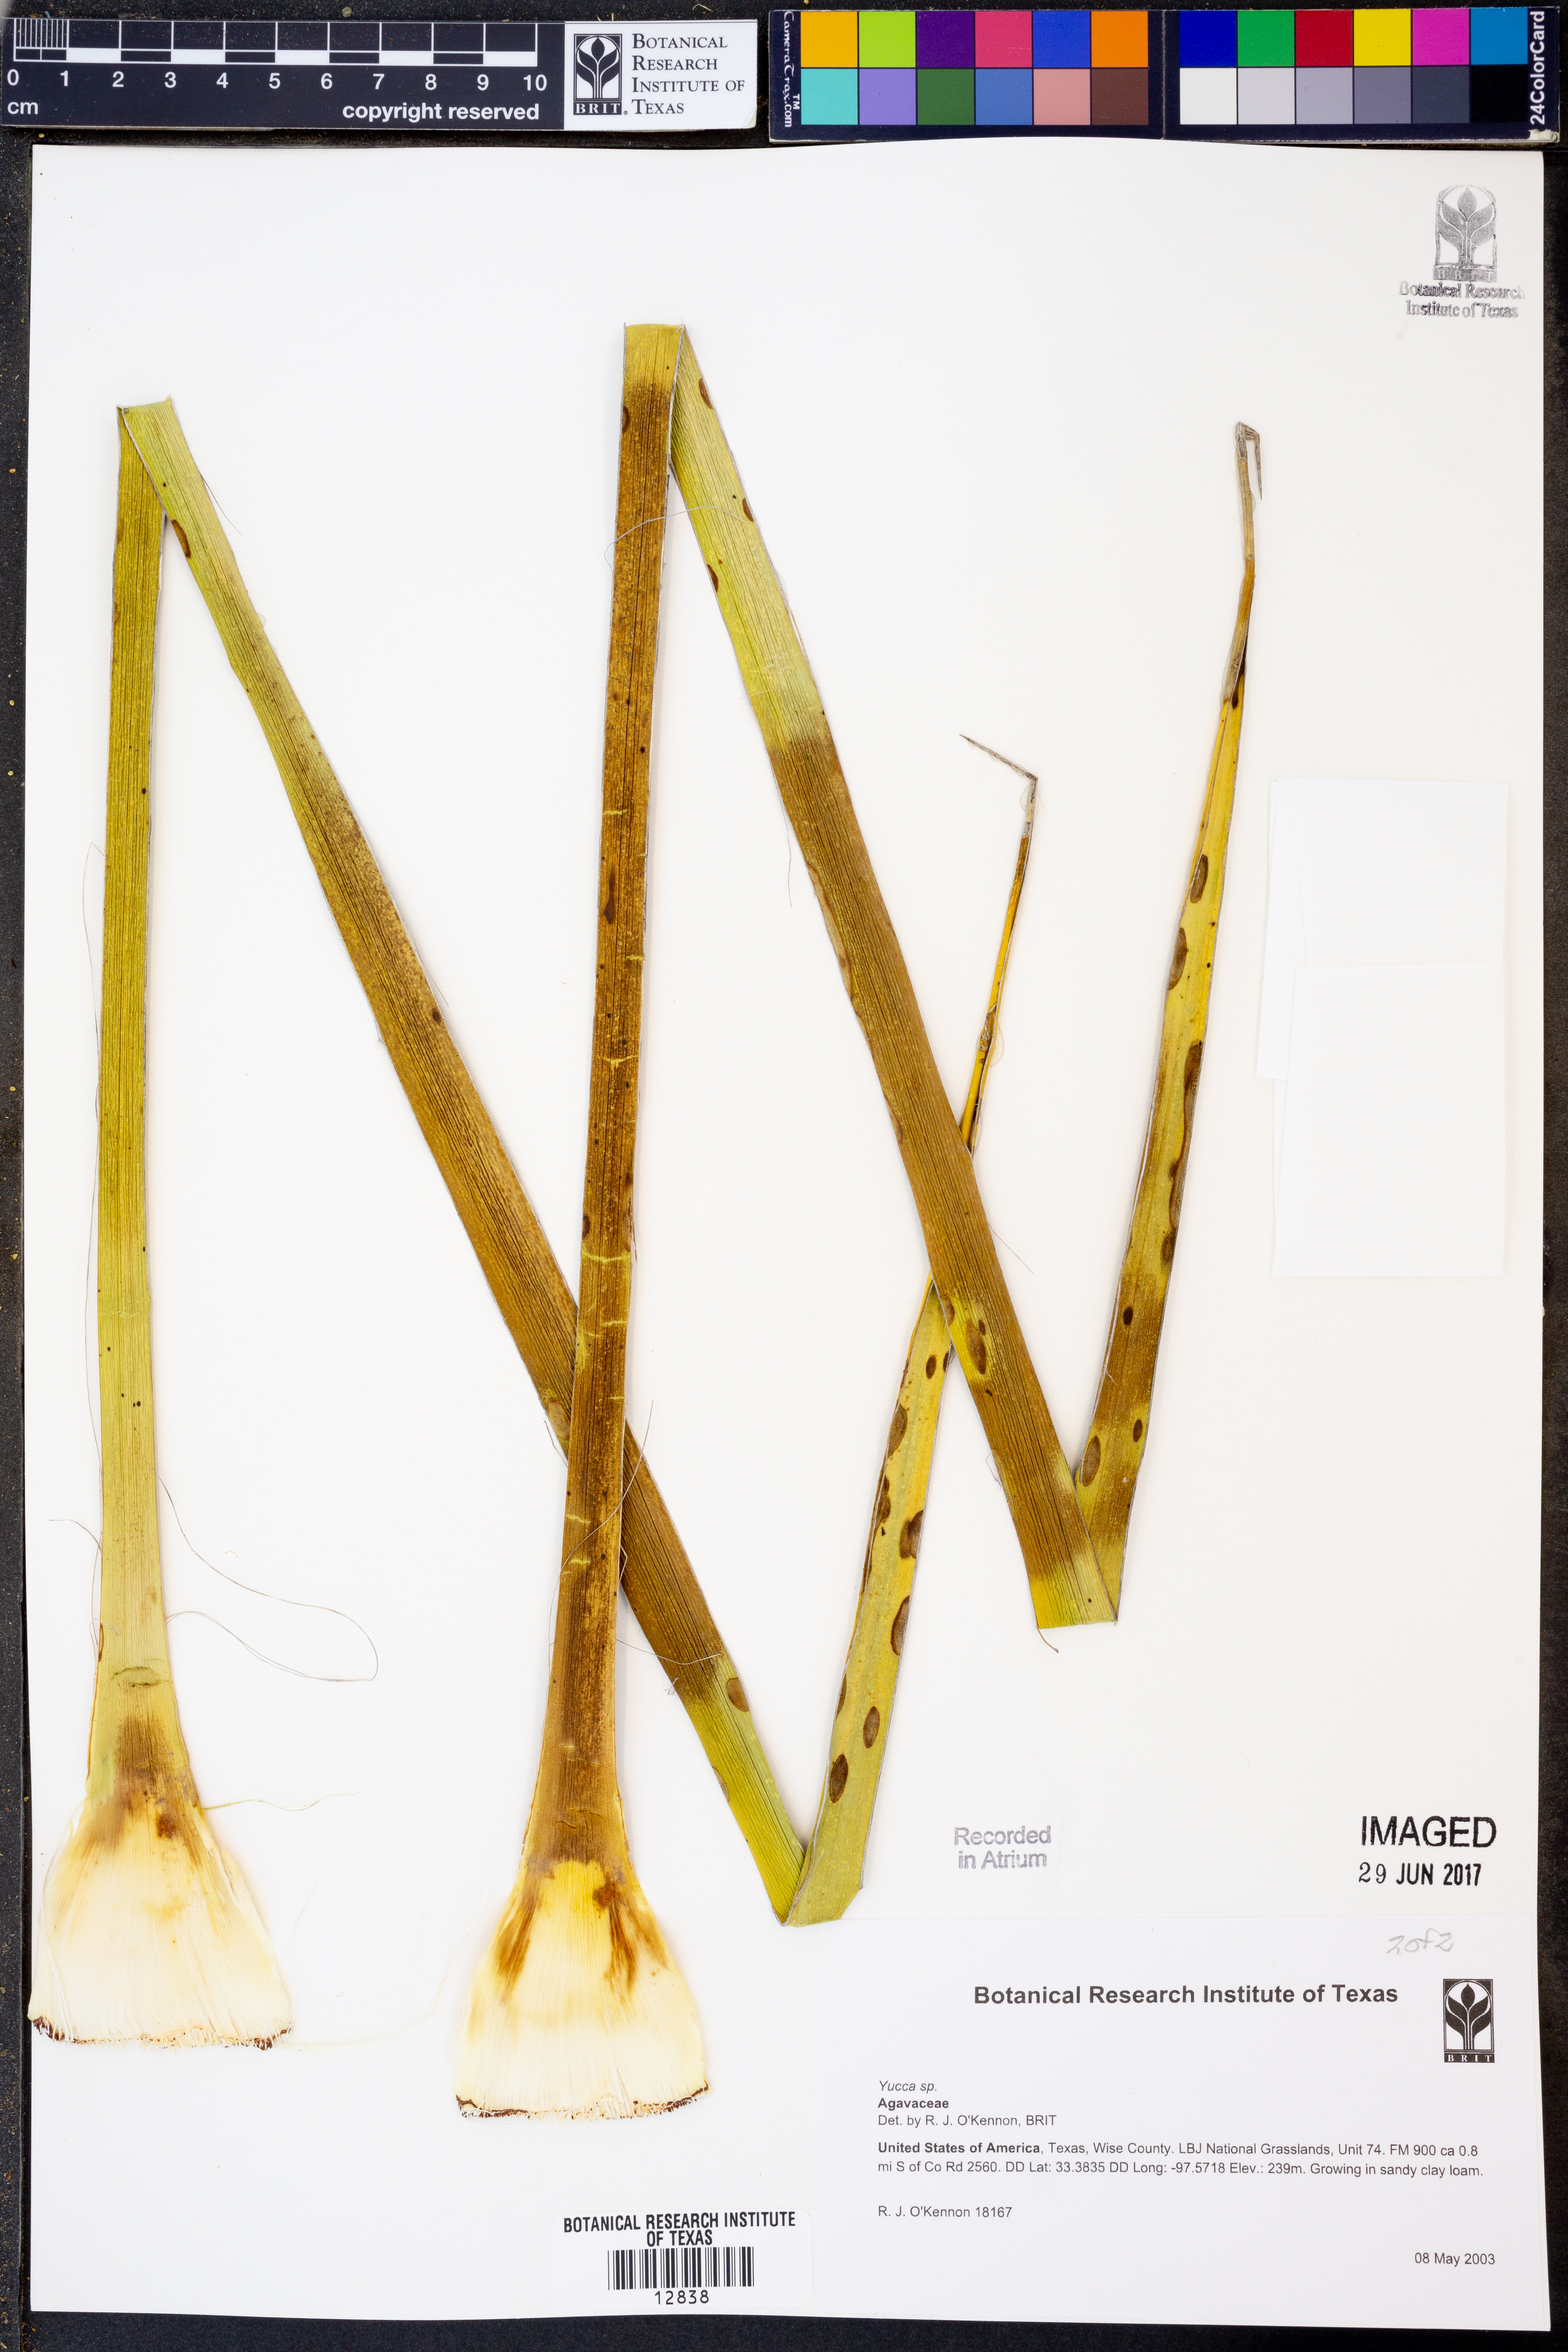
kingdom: Plantae
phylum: Tracheophyta
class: Liliopsida
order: Asparagales
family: Asparagaceae
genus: Yucca
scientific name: Yucca
